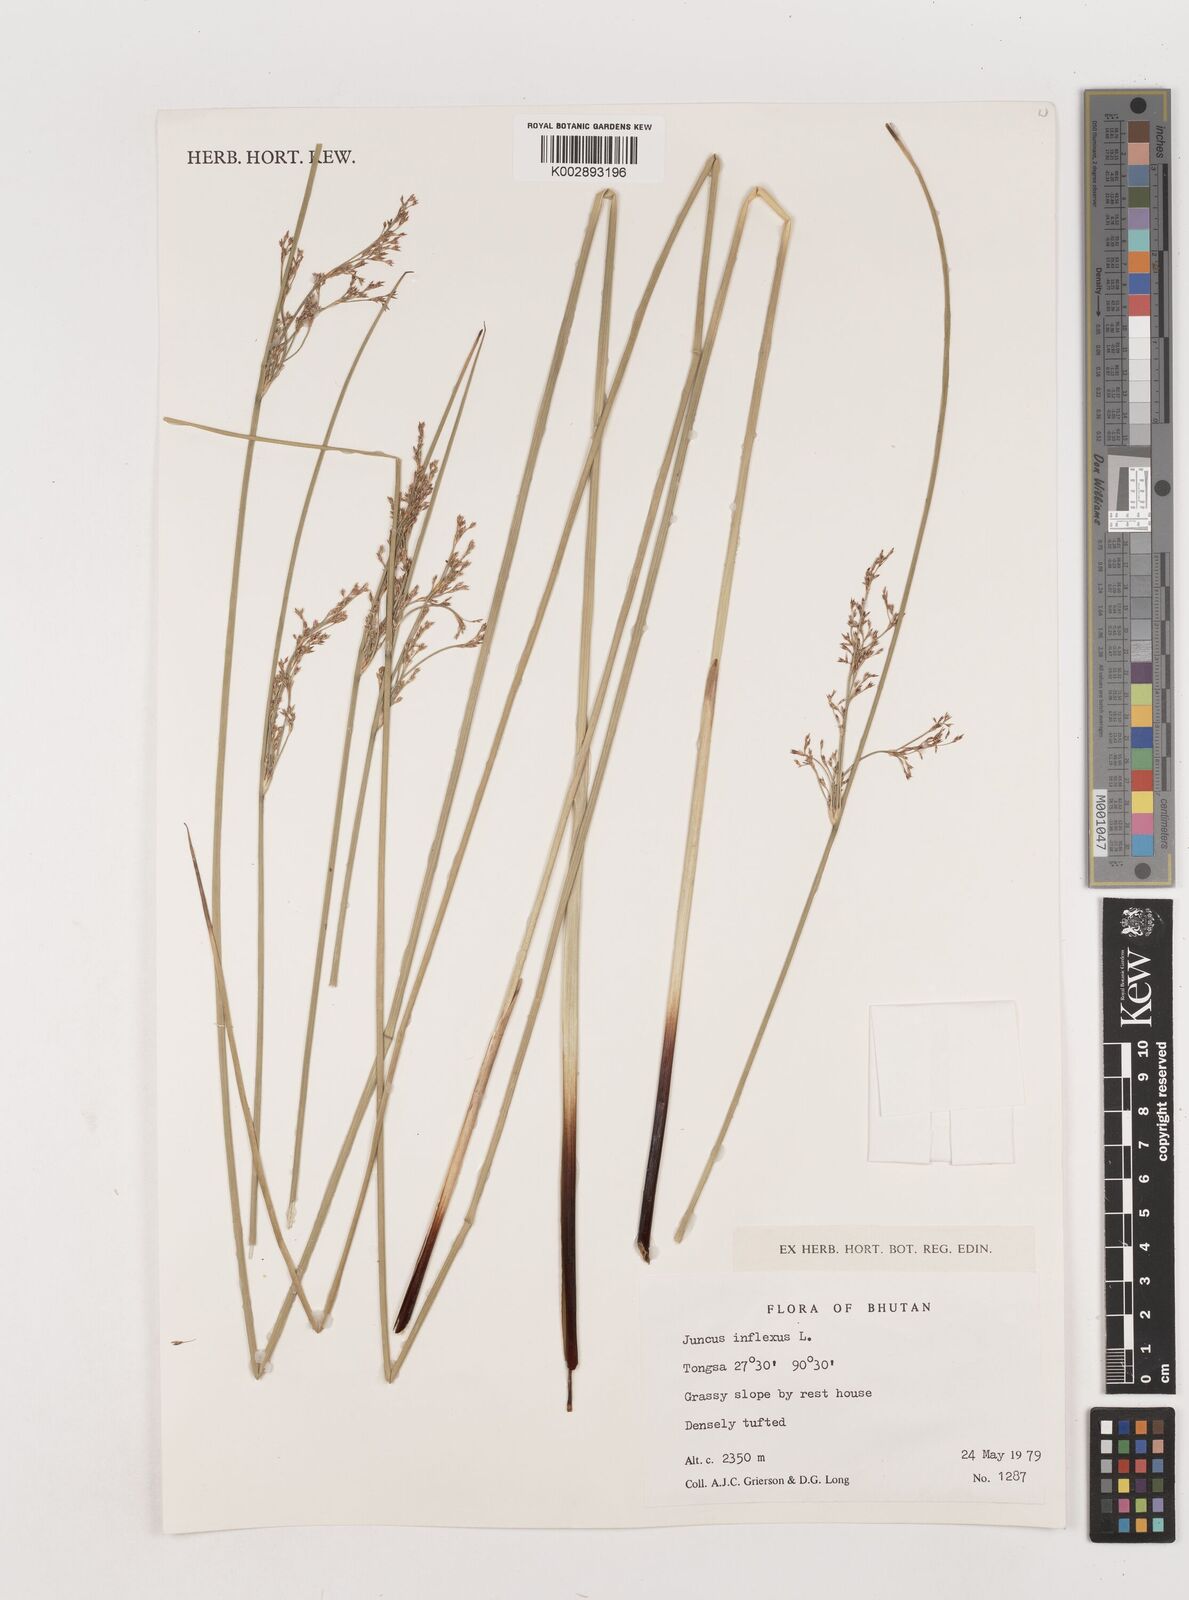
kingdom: Plantae
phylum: Tracheophyta
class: Liliopsida
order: Poales
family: Juncaceae
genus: Juncus
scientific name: Juncus inflexus
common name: Hard rush
